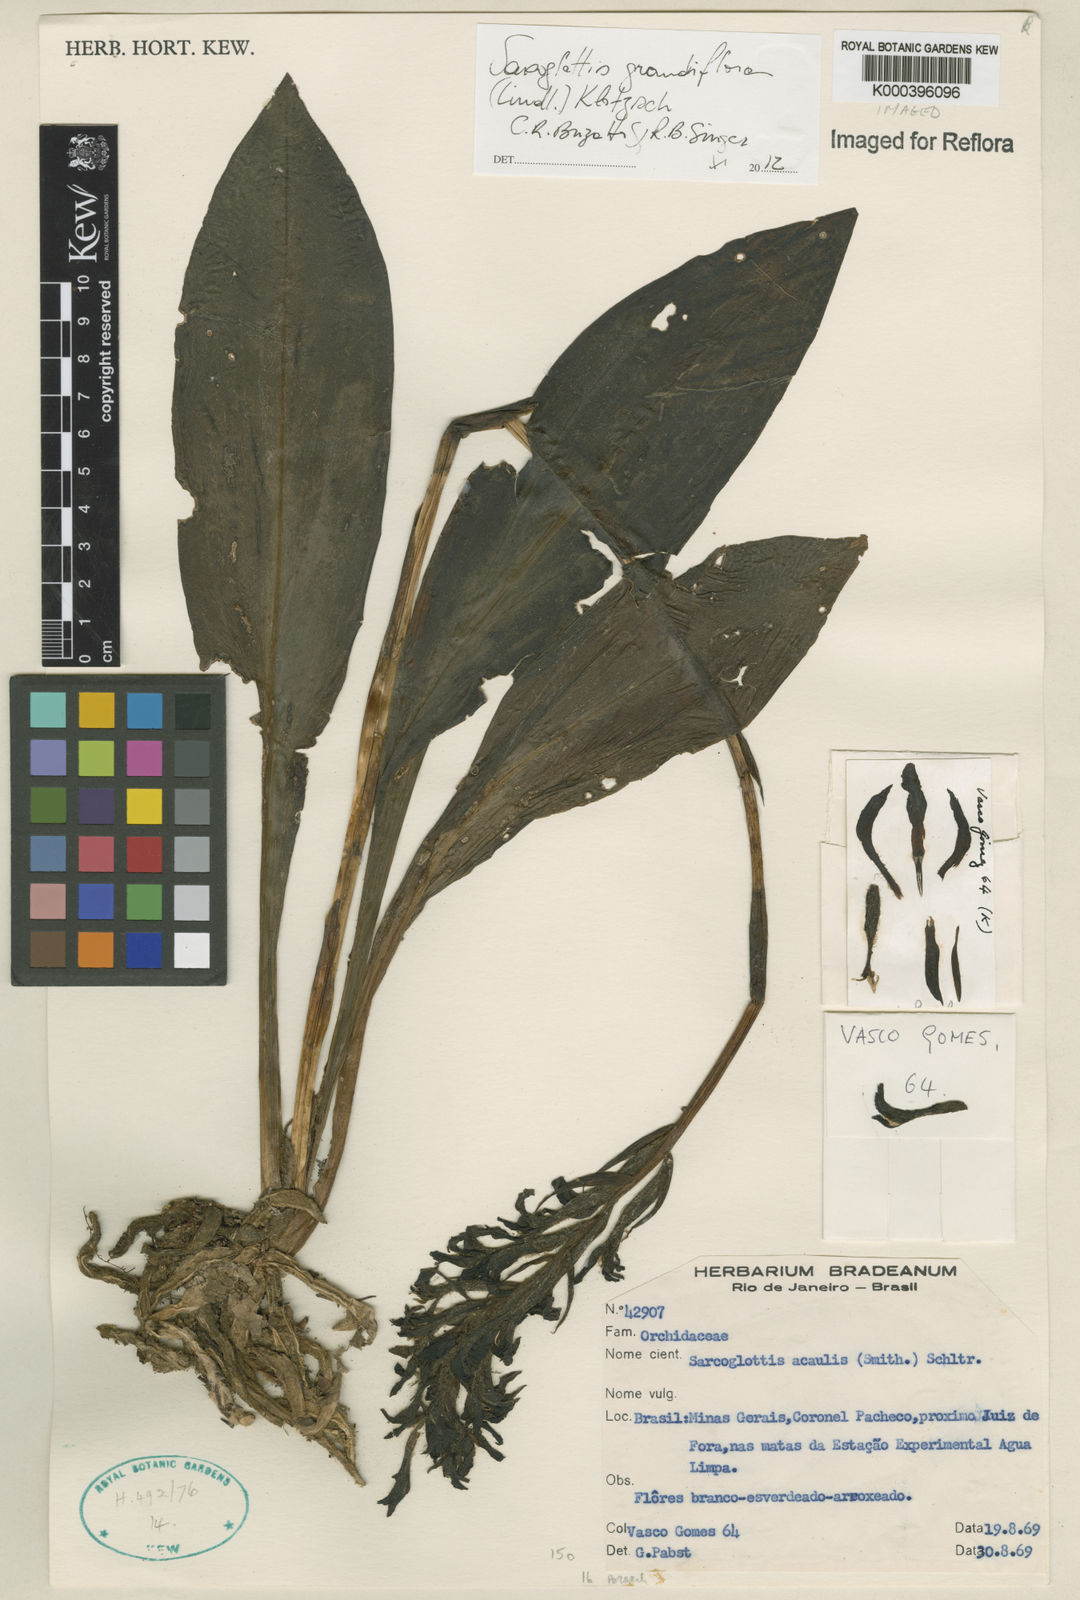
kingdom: Plantae
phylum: Tracheophyta
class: Liliopsida
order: Asparagales
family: Orchidaceae
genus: Sarcoglottis
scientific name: Sarcoglottis acaulis
